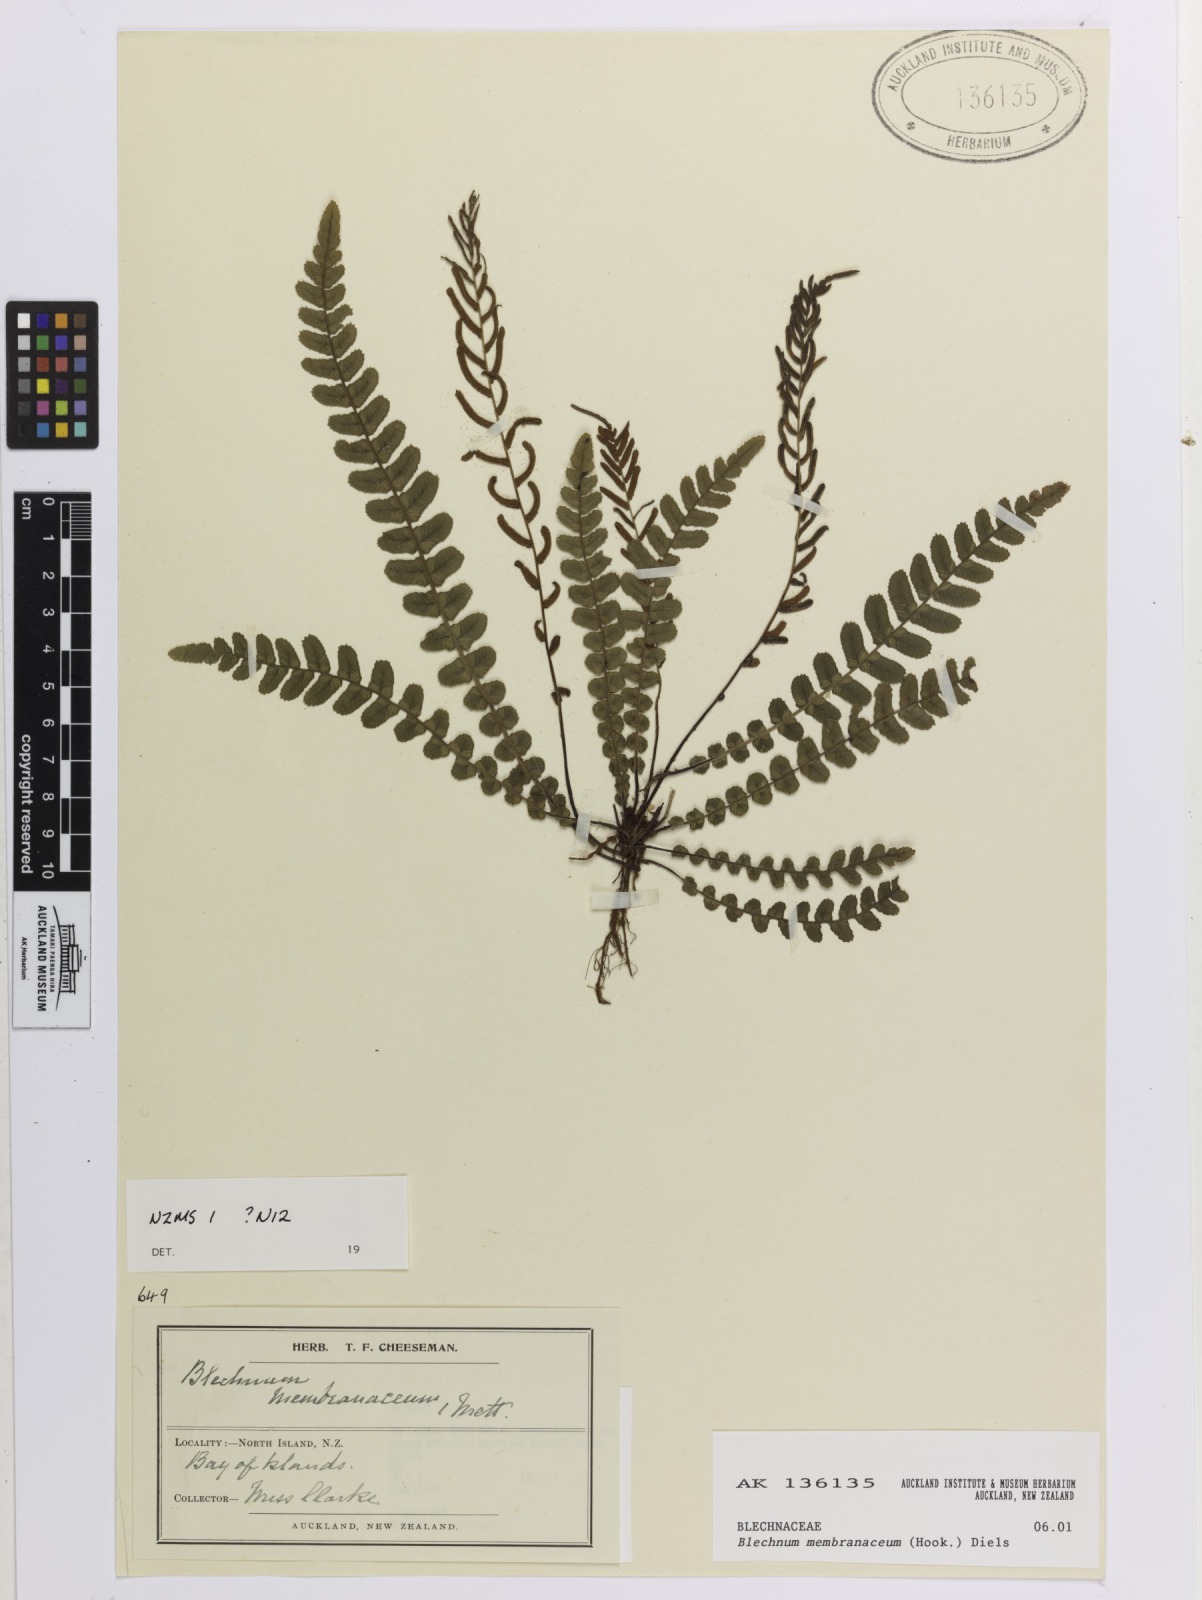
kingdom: Plantae
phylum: Tracheophyta
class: Polypodiopsida
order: Polypodiales
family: Blechnaceae
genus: Austroblechnum
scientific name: Austroblechnum membranaceum
